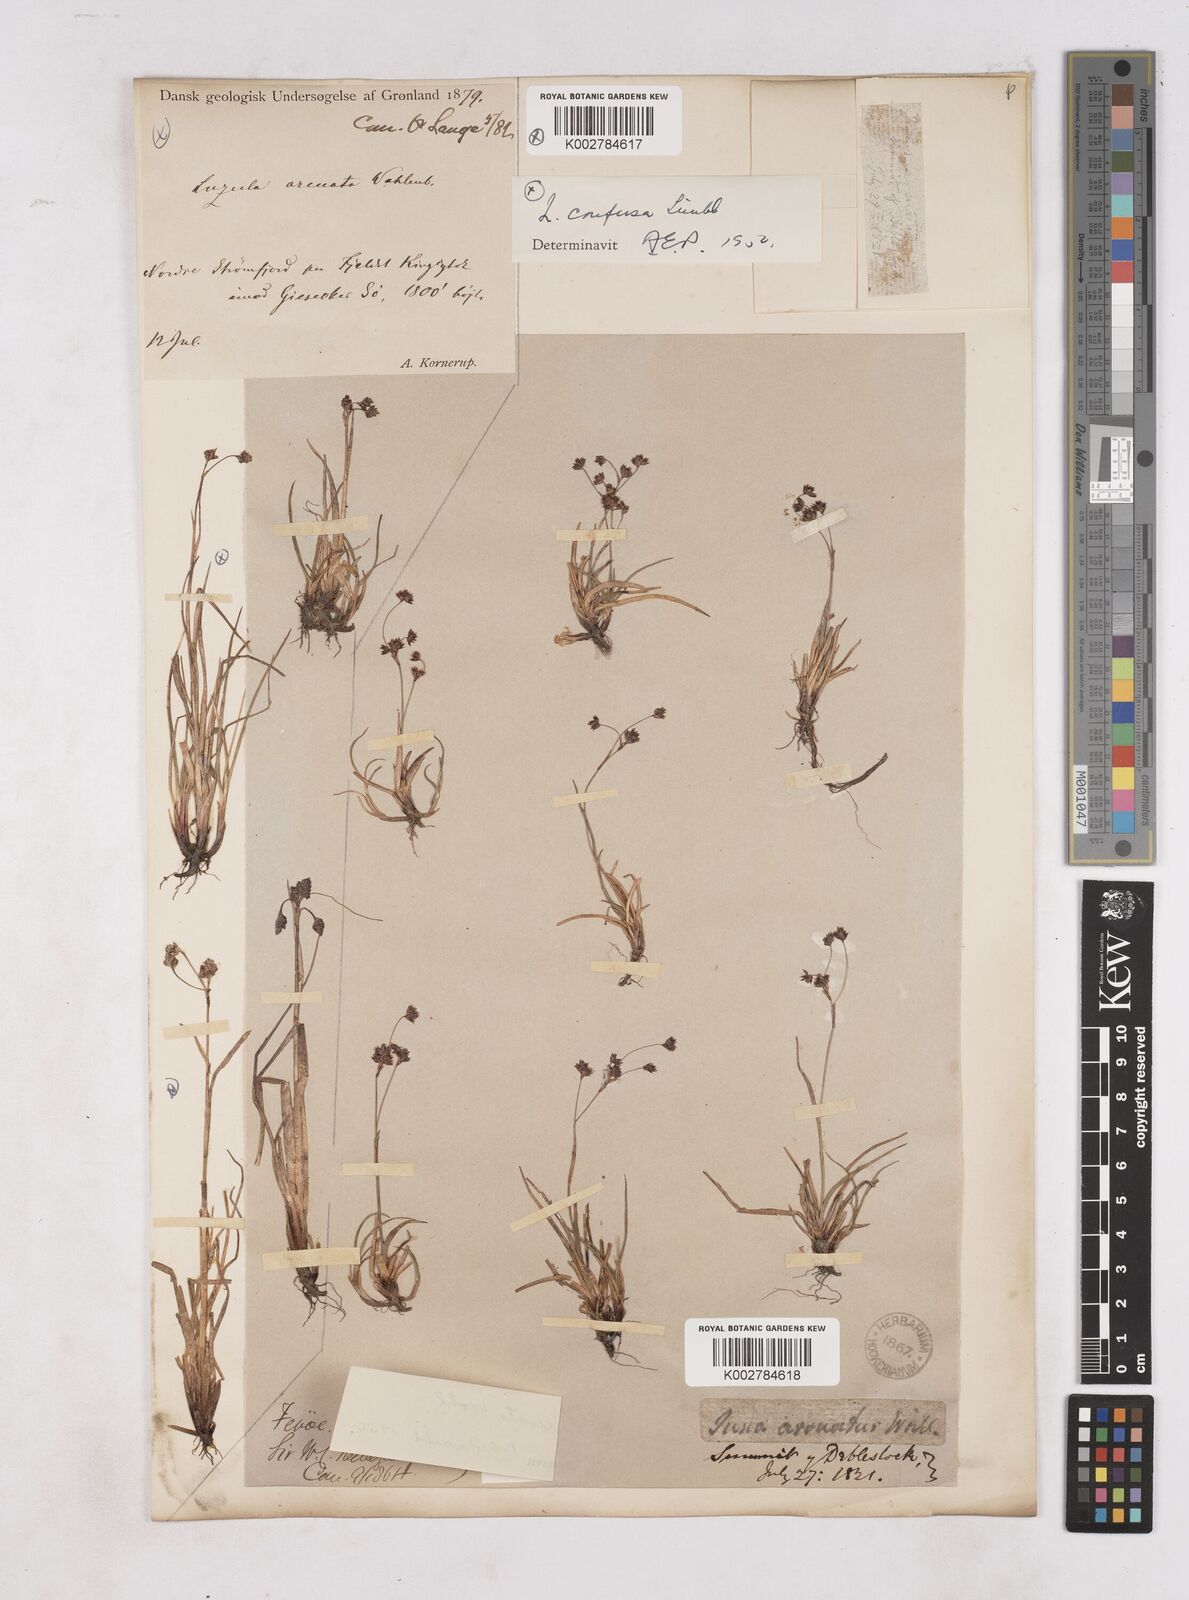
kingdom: Plantae
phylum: Tracheophyta
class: Liliopsida
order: Poales
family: Juncaceae
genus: Luzula
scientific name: Luzula arcuata
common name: Curved wood-rush
